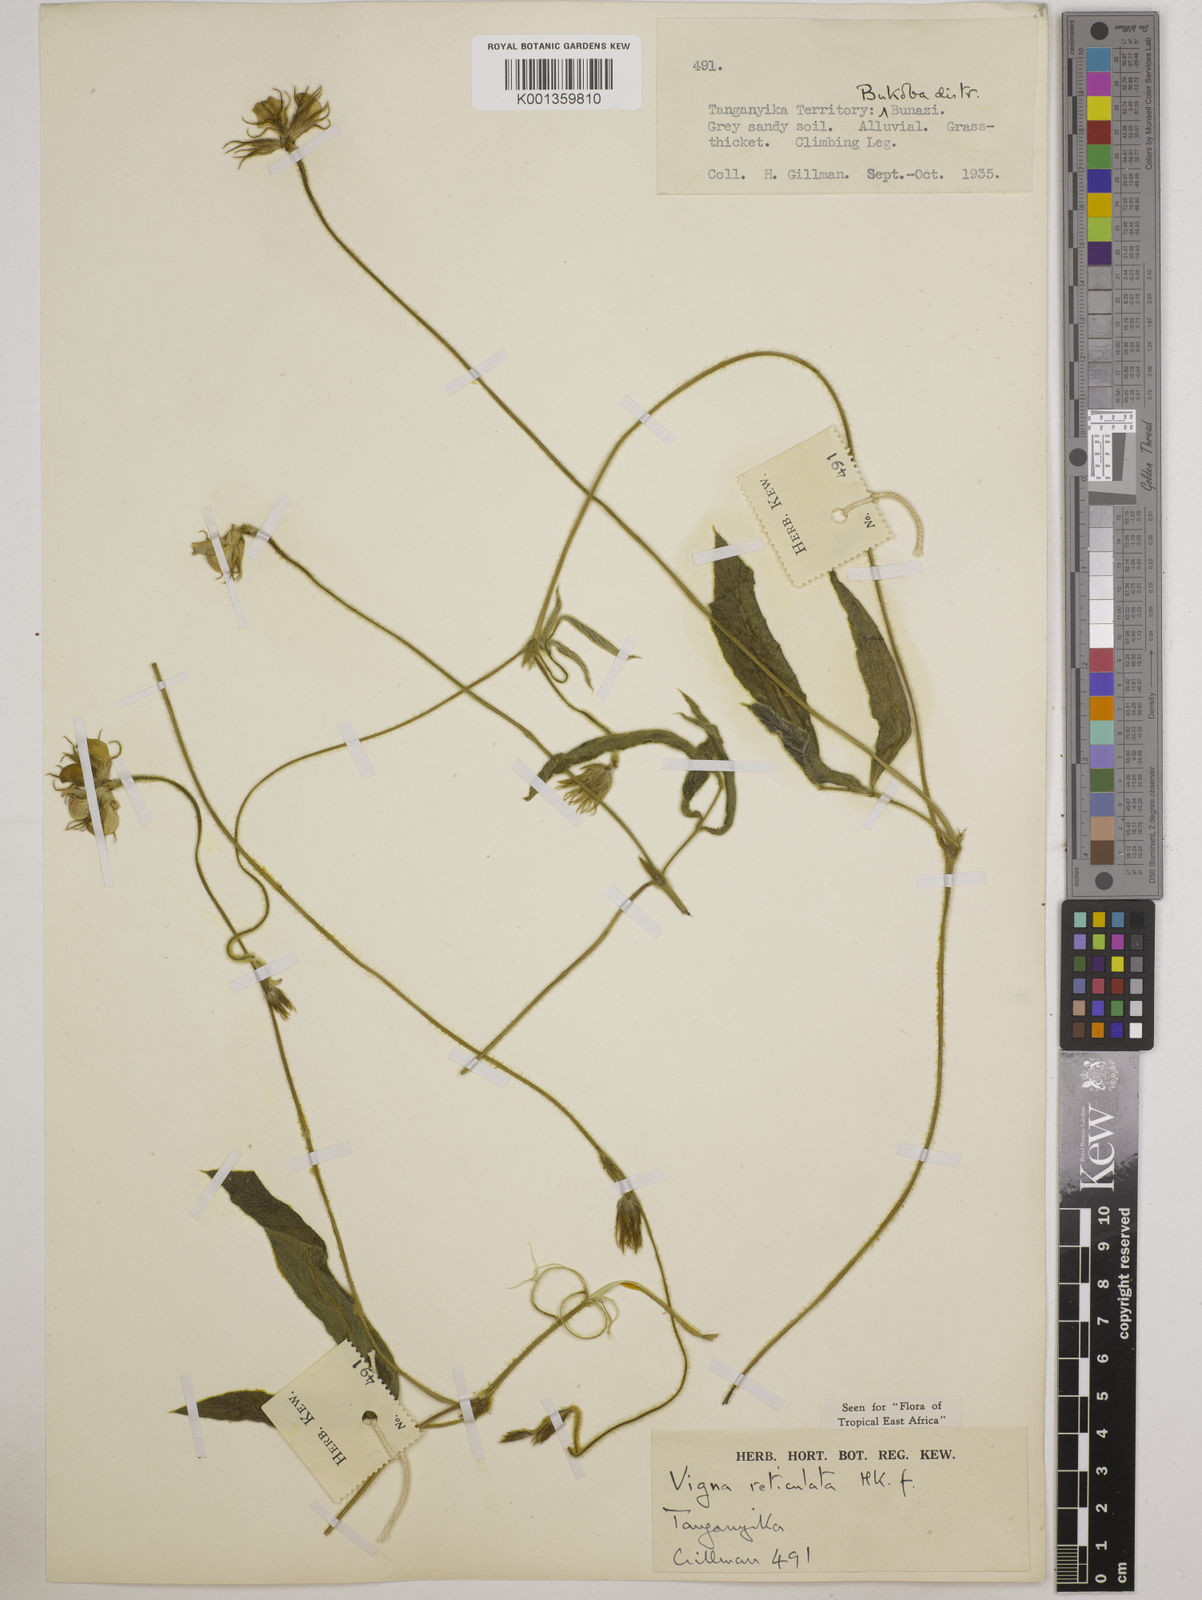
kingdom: Plantae
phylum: Tracheophyta
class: Magnoliopsida
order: Fabales
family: Fabaceae
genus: Vigna
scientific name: Vigna reticulata
